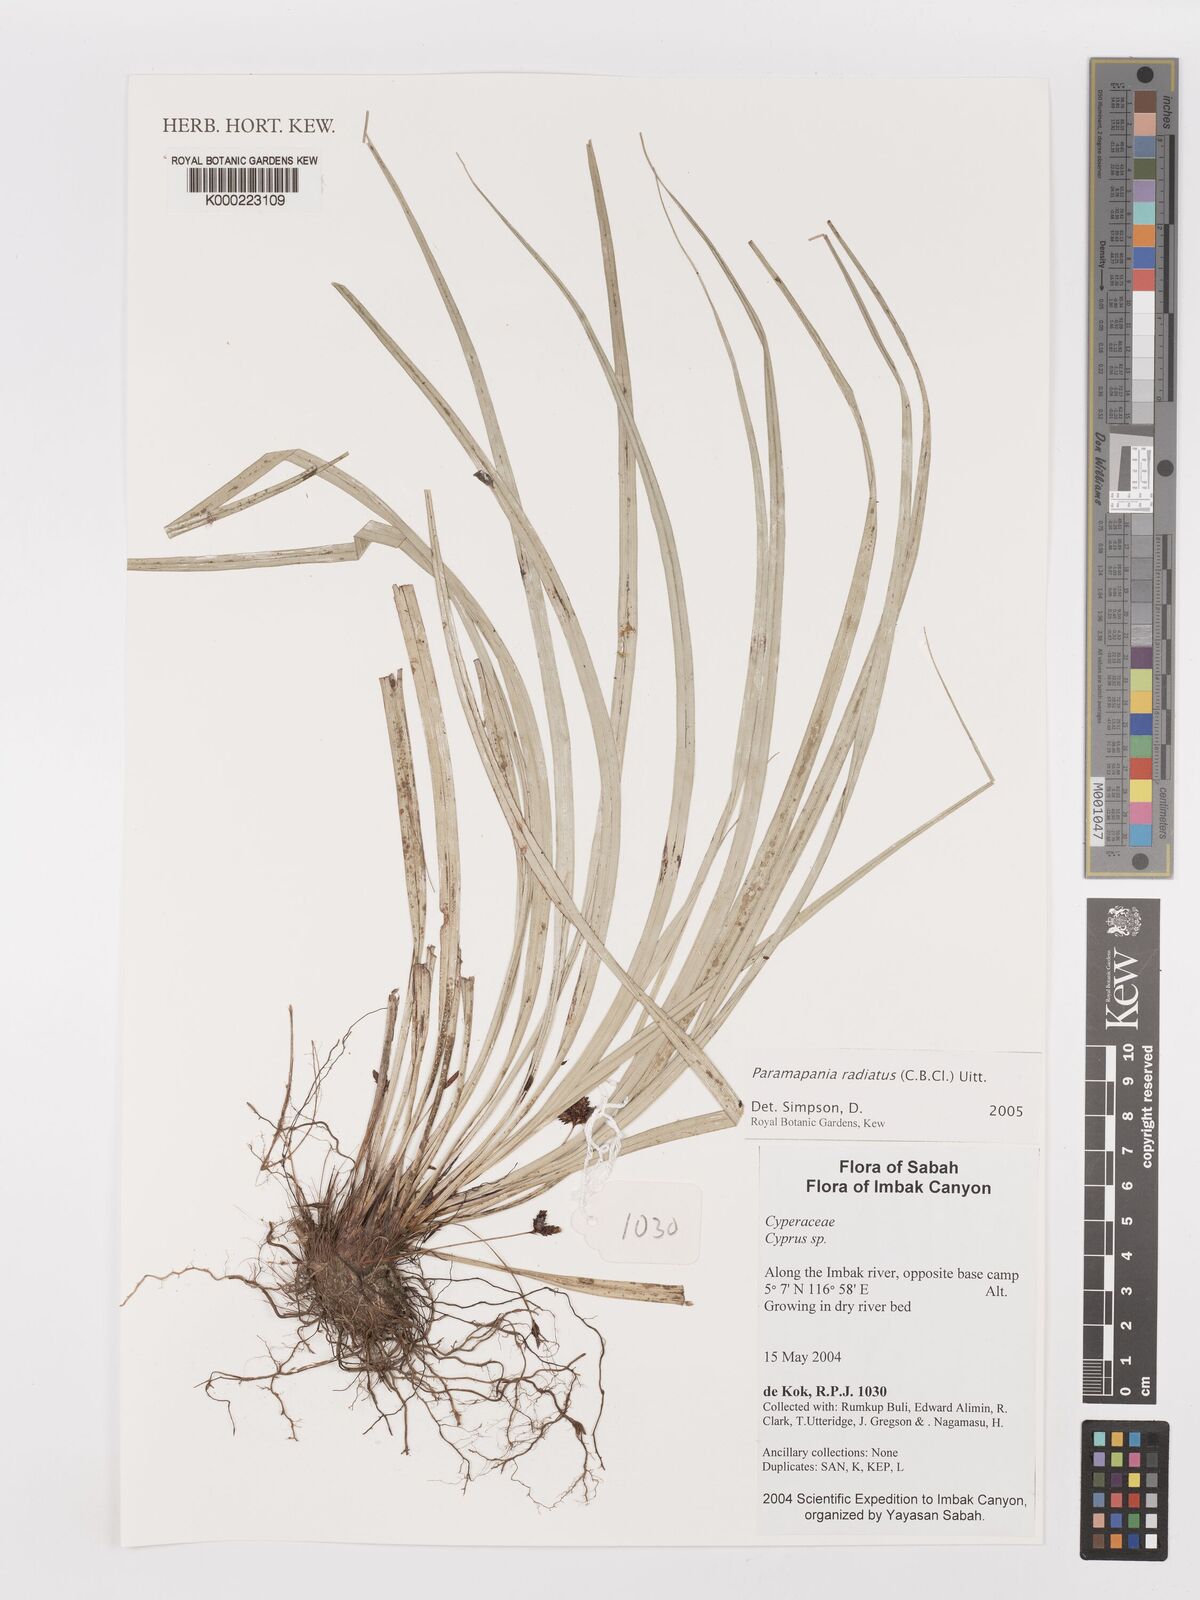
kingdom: Plantae
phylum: Tracheophyta
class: Liliopsida
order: Poales
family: Cyperaceae
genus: Paramapania
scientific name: Paramapania
